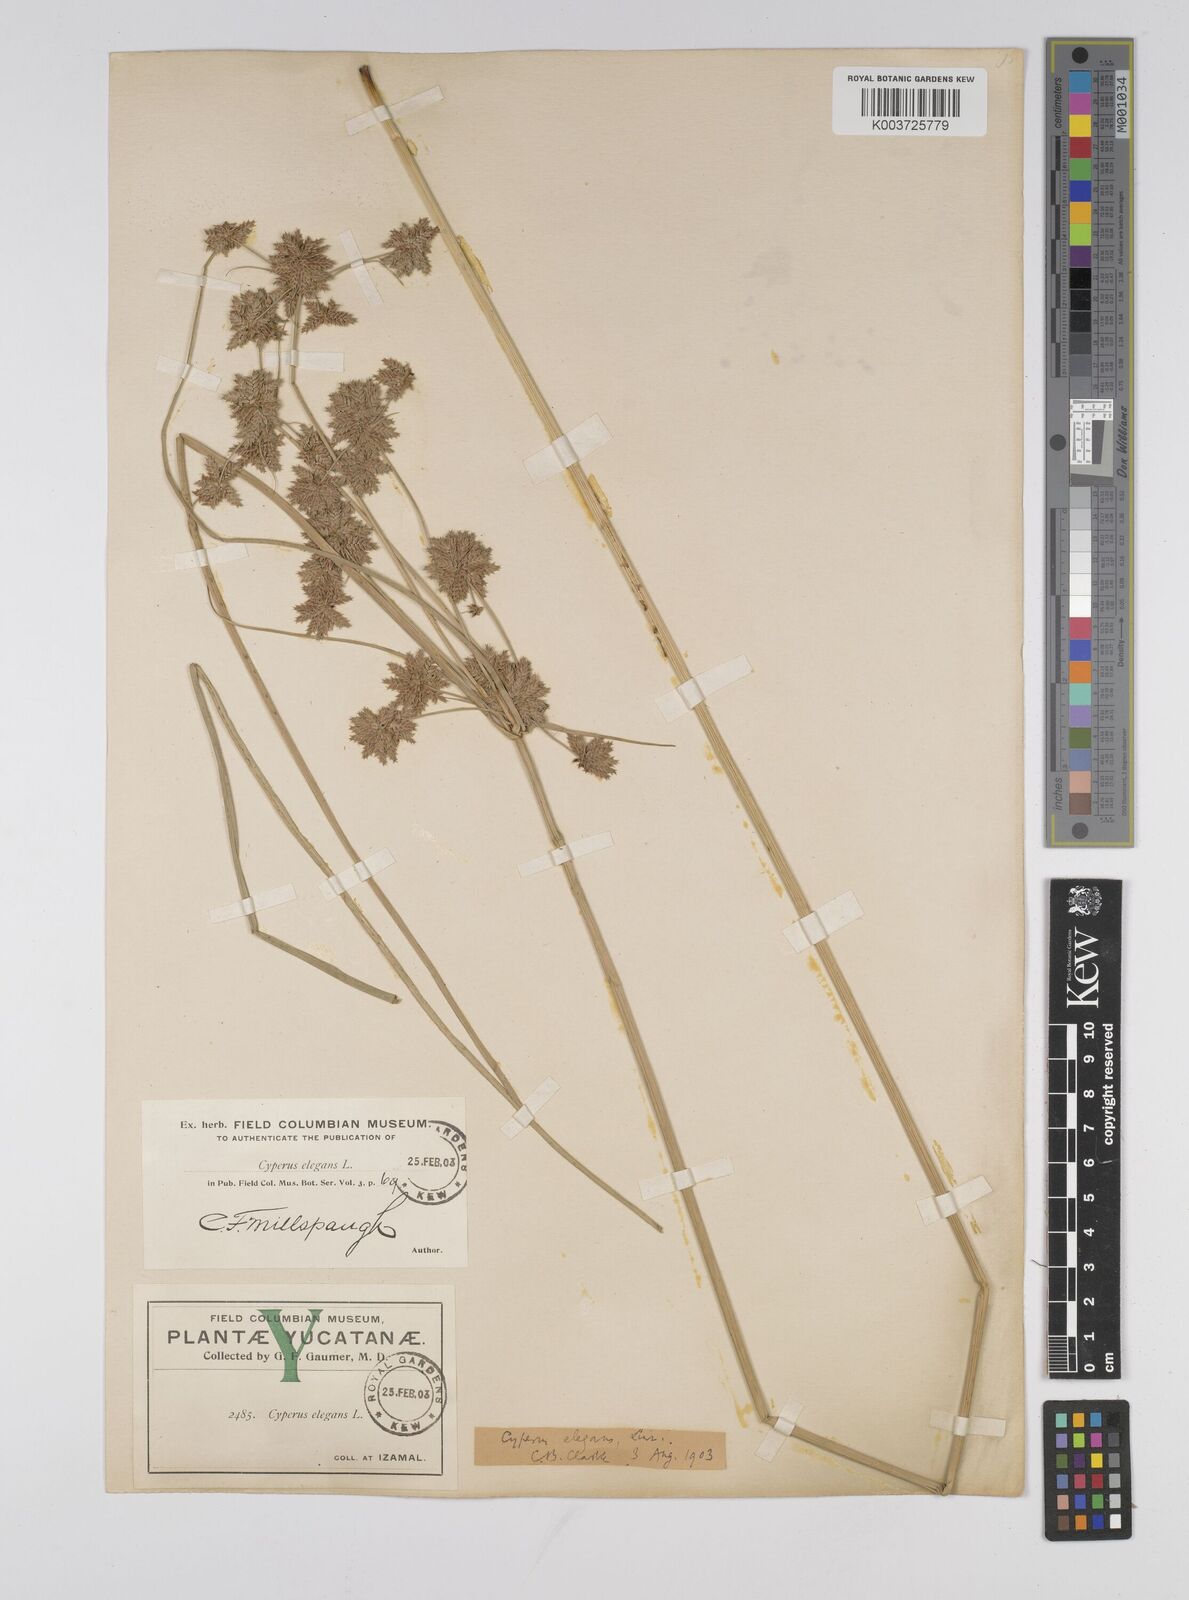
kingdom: Plantae
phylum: Tracheophyta
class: Liliopsida
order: Poales
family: Cyperaceae
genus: Cyperus
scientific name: Cyperus elegans
